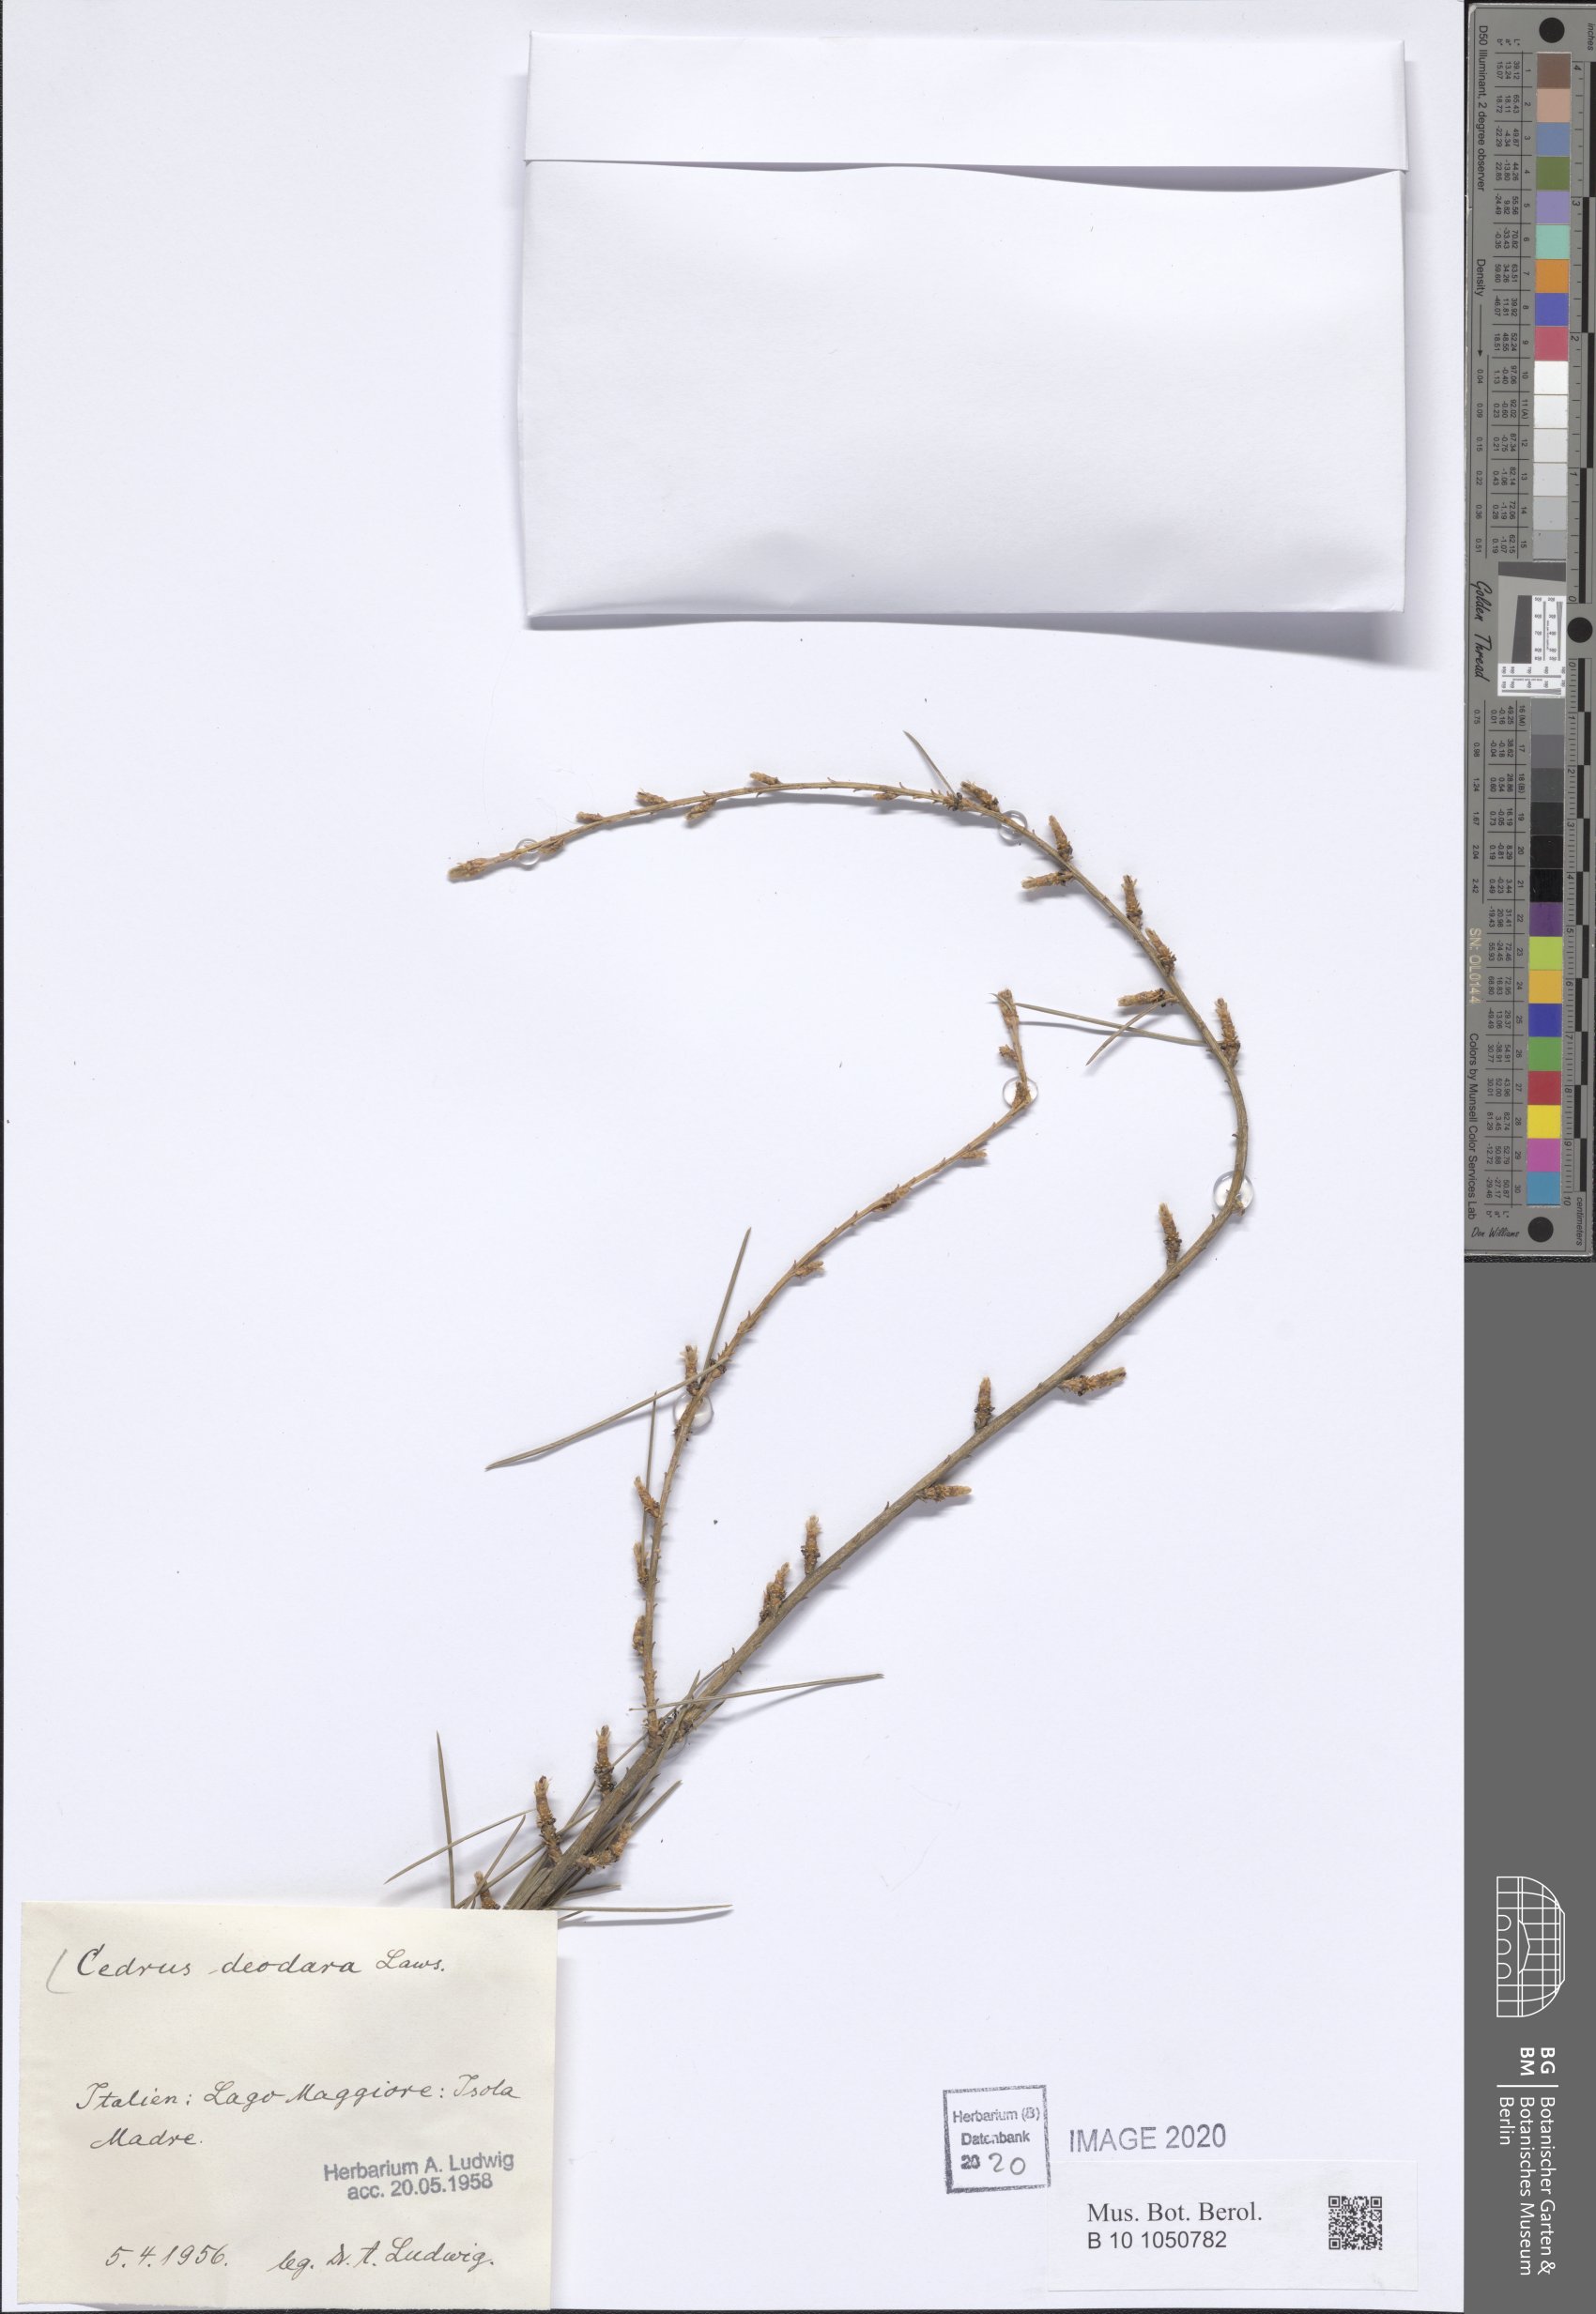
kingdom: Plantae
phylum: Tracheophyta
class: Pinopsida
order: Pinales
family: Pinaceae
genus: Cedrus
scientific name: Cedrus deodara
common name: Deodar
